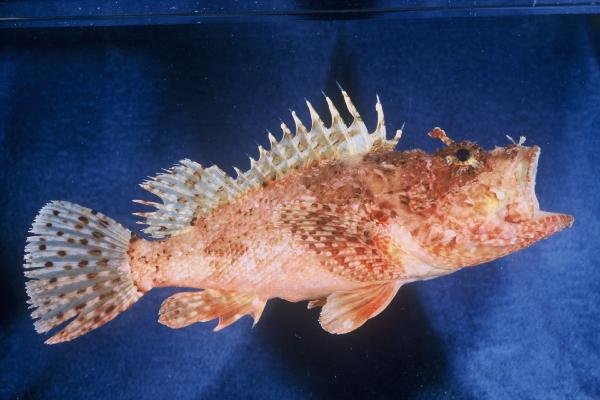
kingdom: Animalia
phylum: Chordata
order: Scorpaeniformes
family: Scorpaenidae
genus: Scorpaena
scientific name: Scorpaena scrofa
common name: Red scorpionfish
